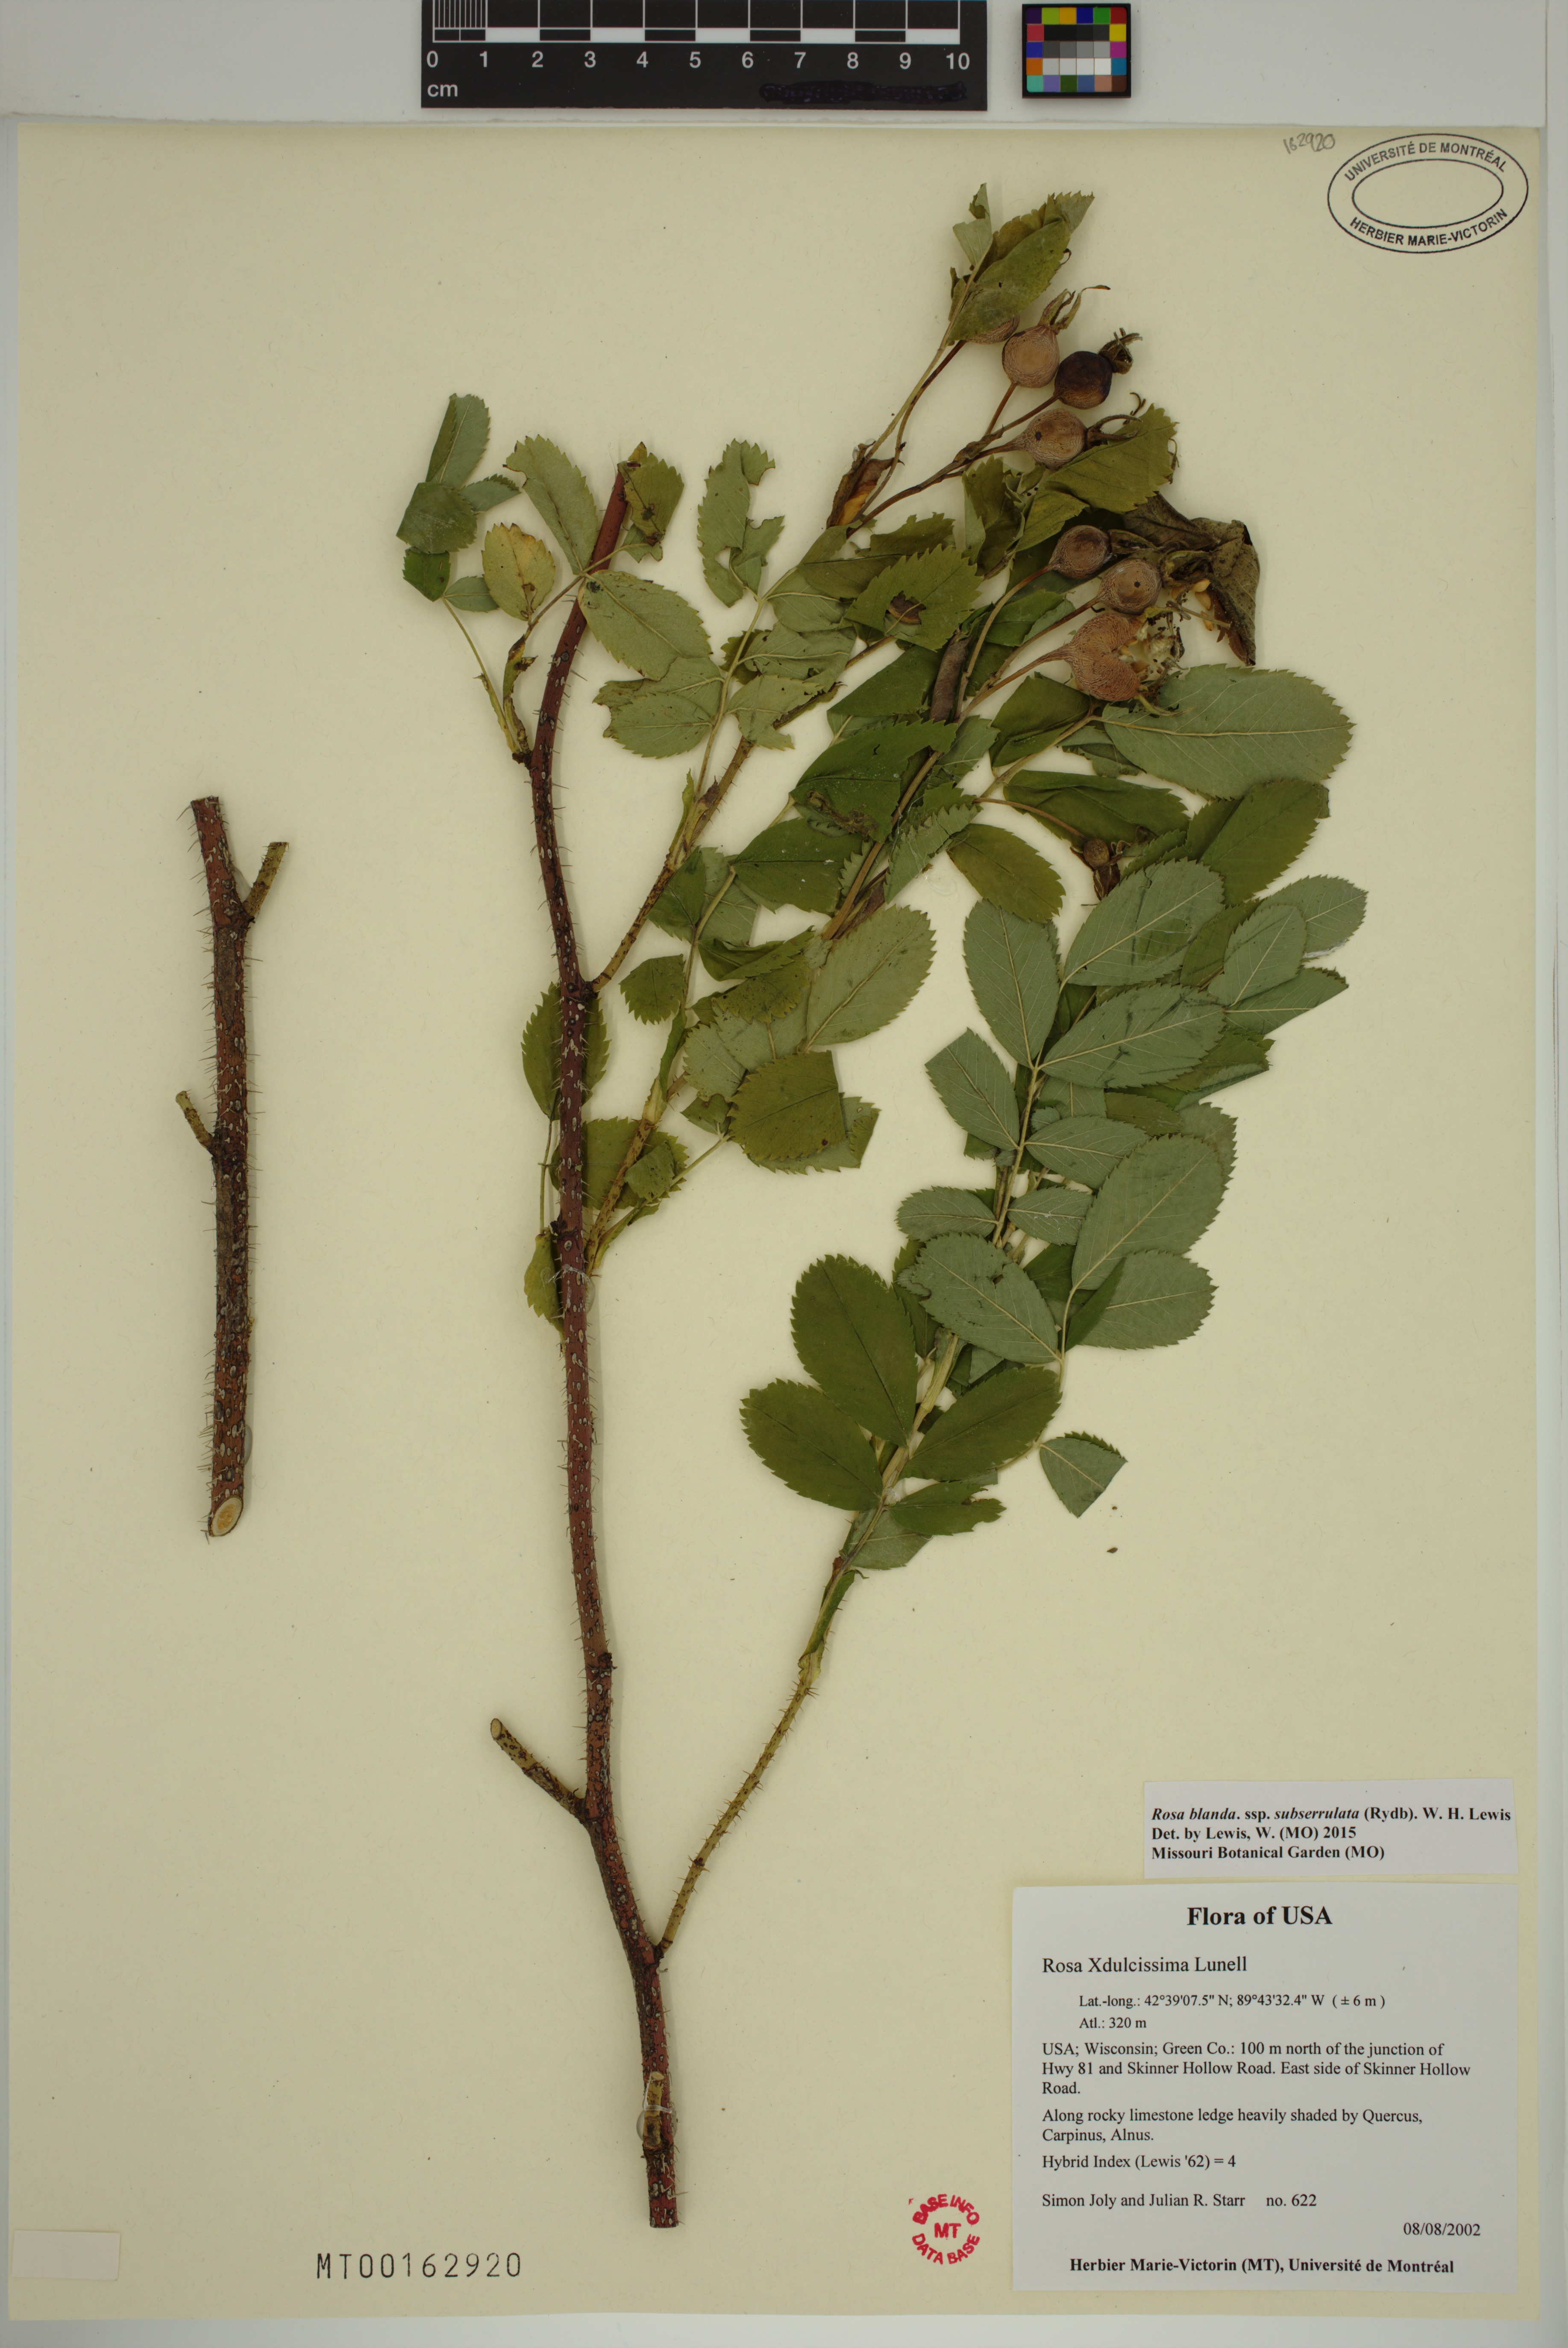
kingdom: Plantae
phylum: Tracheophyta
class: Magnoliopsida
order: Rosales
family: Rosaceae
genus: Rosa
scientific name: Rosa blanda
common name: Smooth rose
